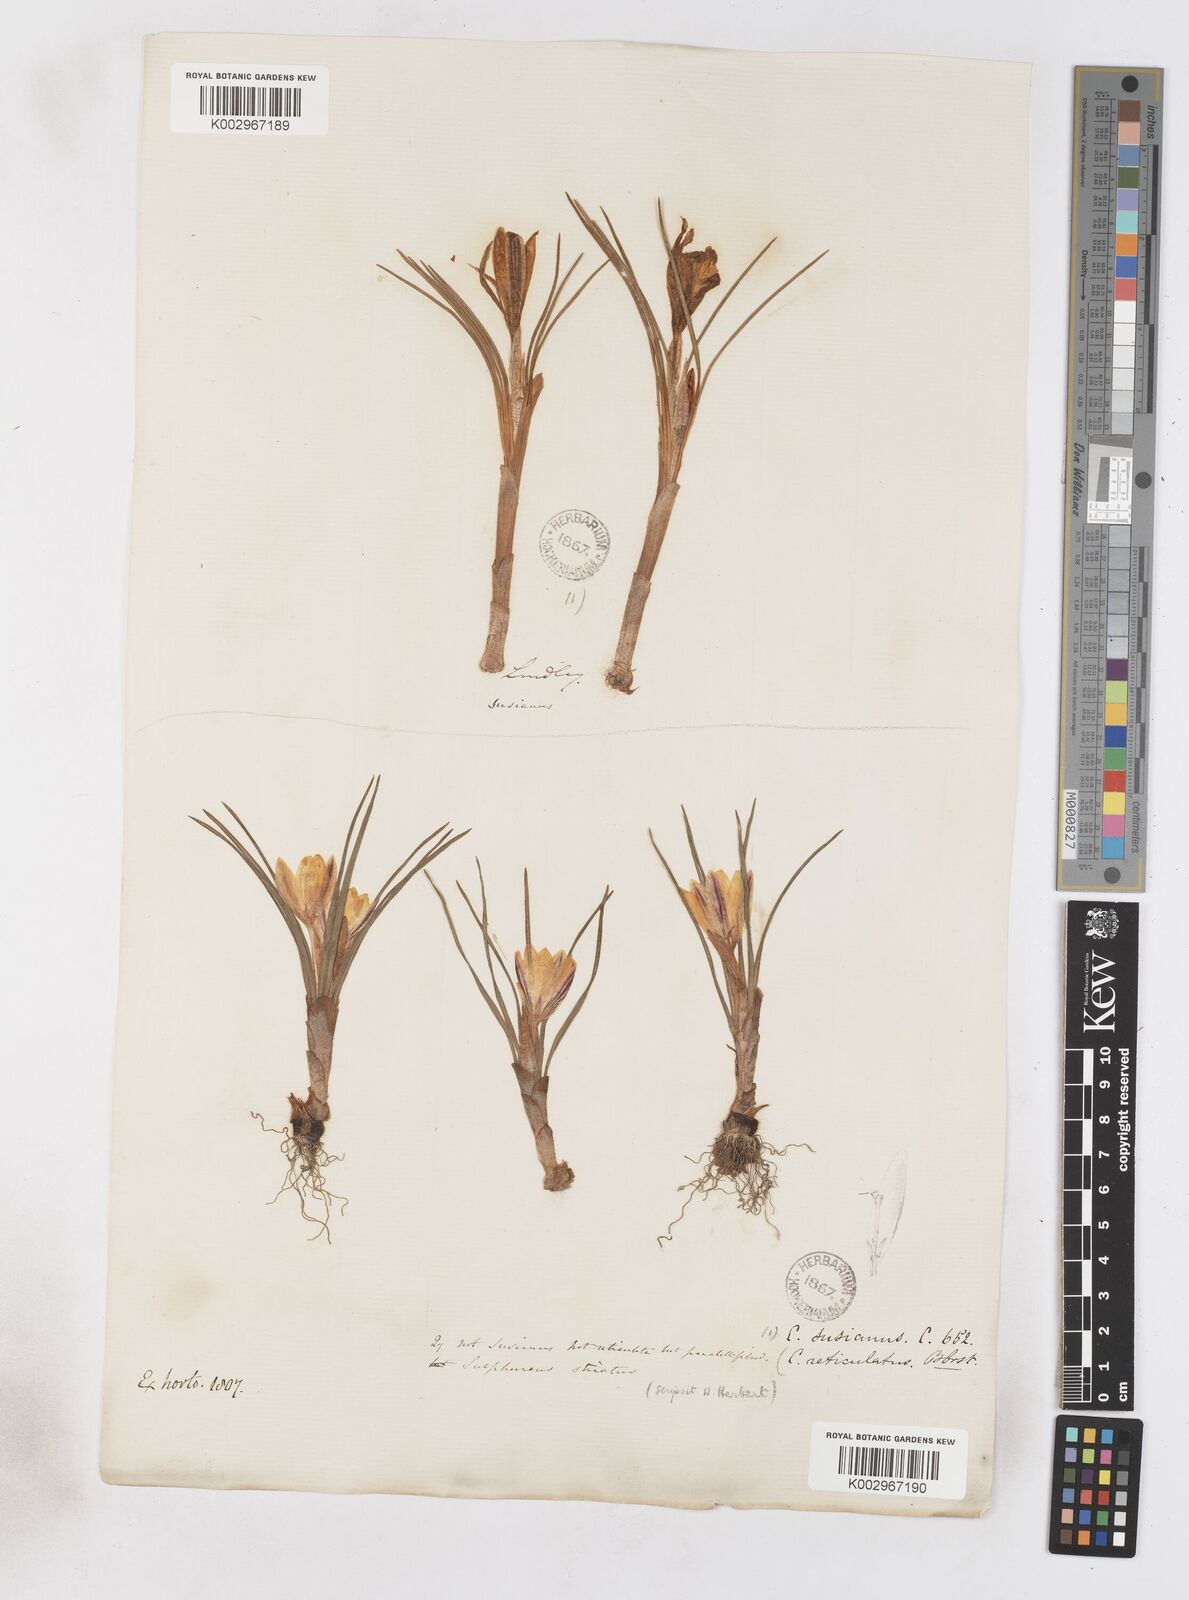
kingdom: Plantae
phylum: Tracheophyta
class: Liliopsida
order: Asparagales
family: Iridaceae
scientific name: Iridaceae
